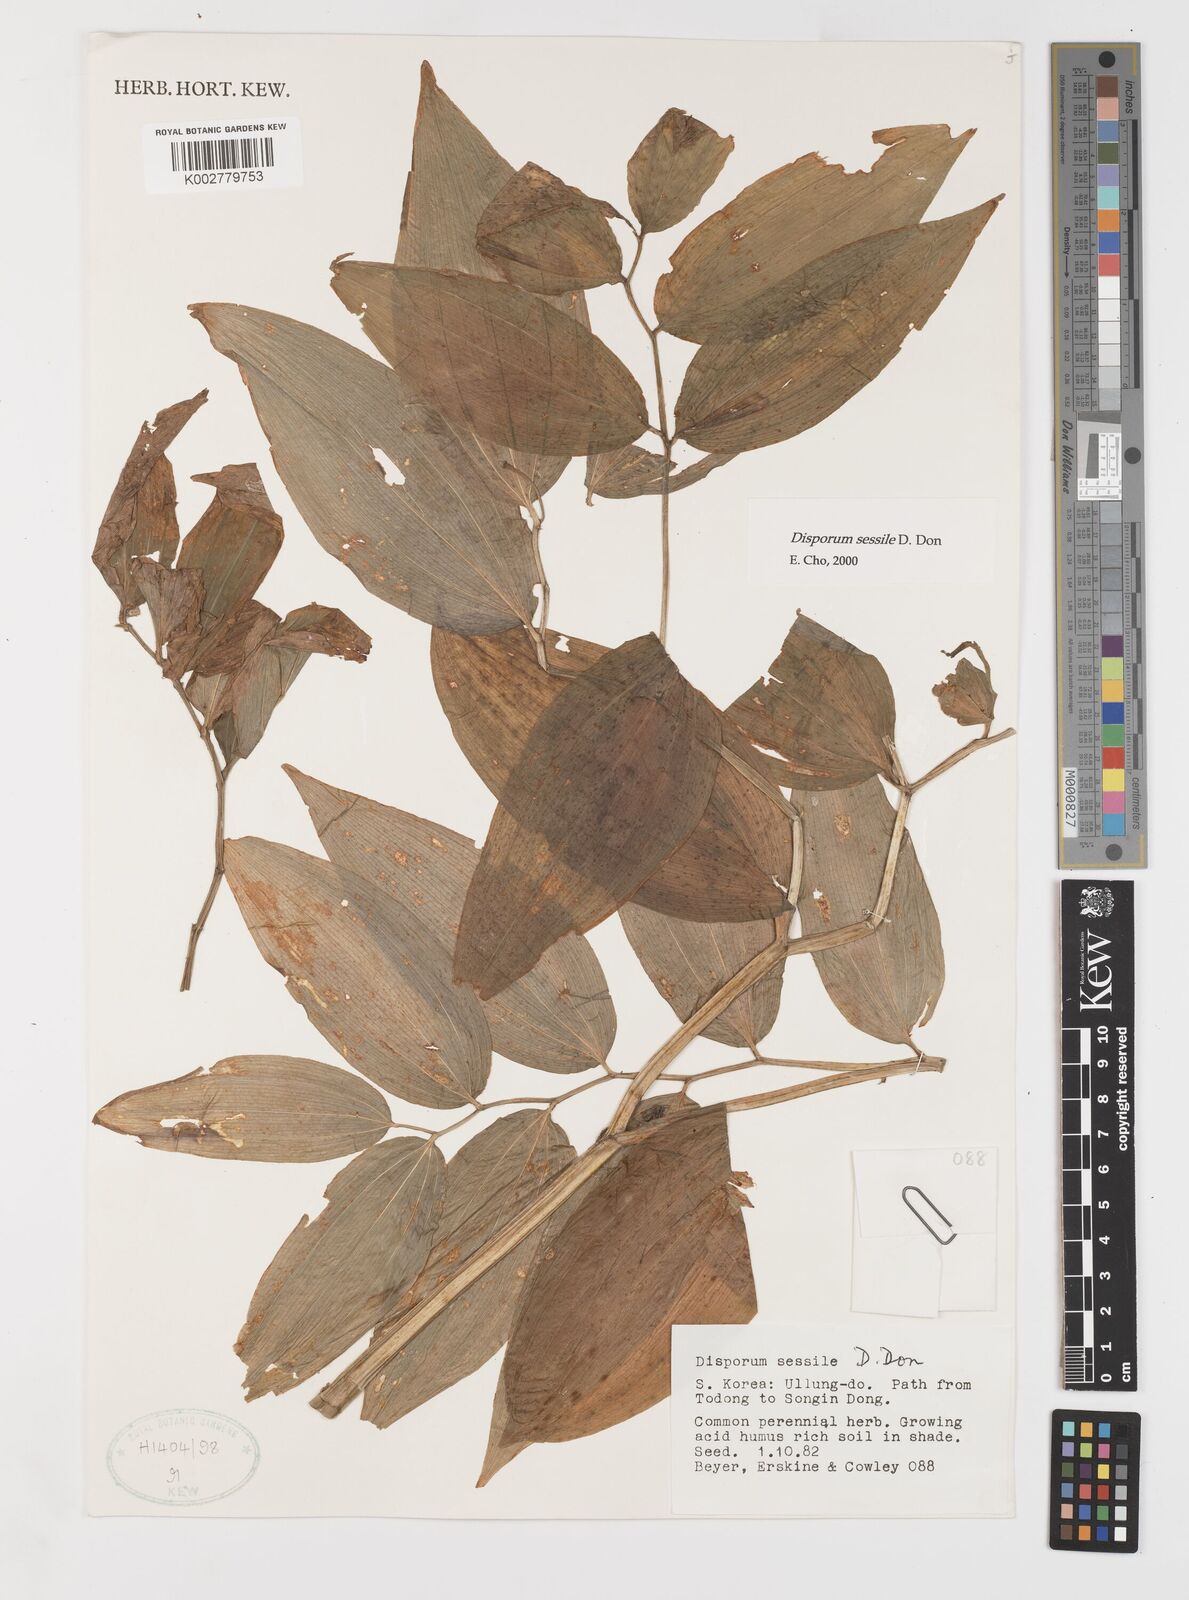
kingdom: Plantae
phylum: Tracheophyta
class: Liliopsida
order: Liliales
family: Colchicaceae
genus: Disporum
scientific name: Disporum sessile
